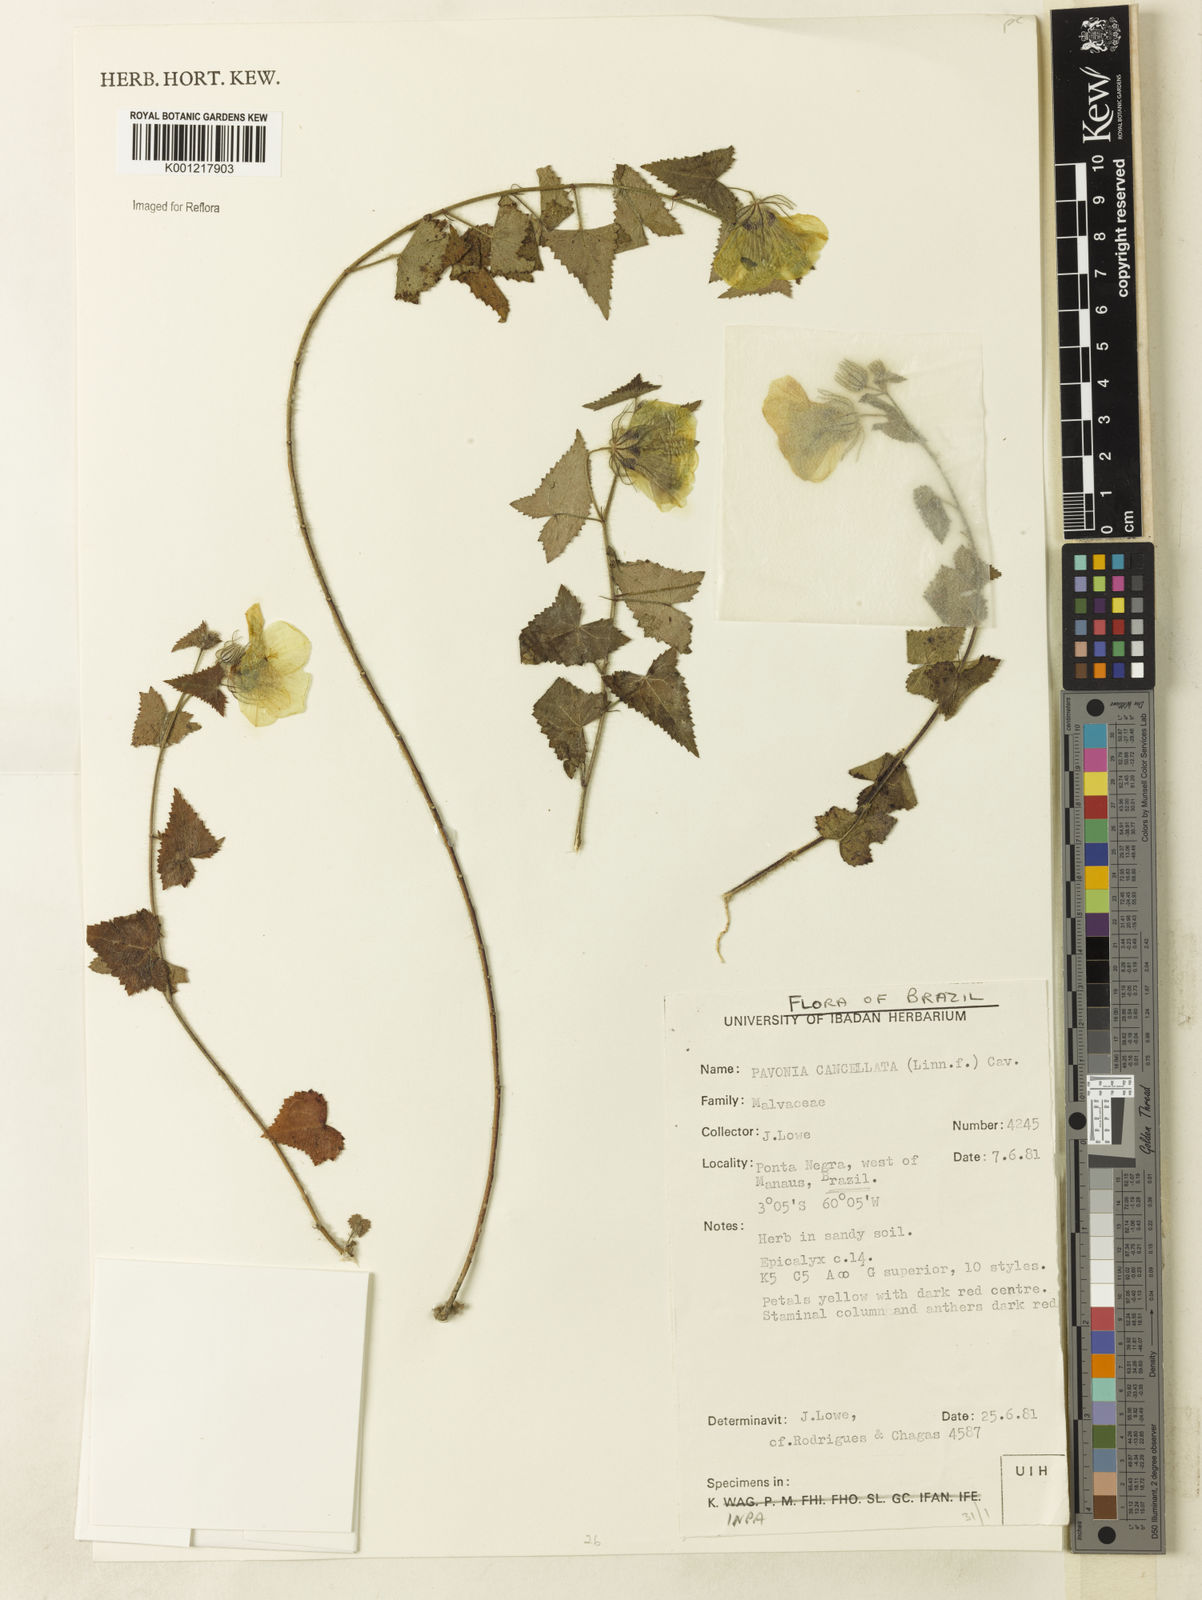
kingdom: Plantae
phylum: Tracheophyta
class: Magnoliopsida
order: Malvales
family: Malvaceae
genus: Pavonia
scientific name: Pavonia cancellata
